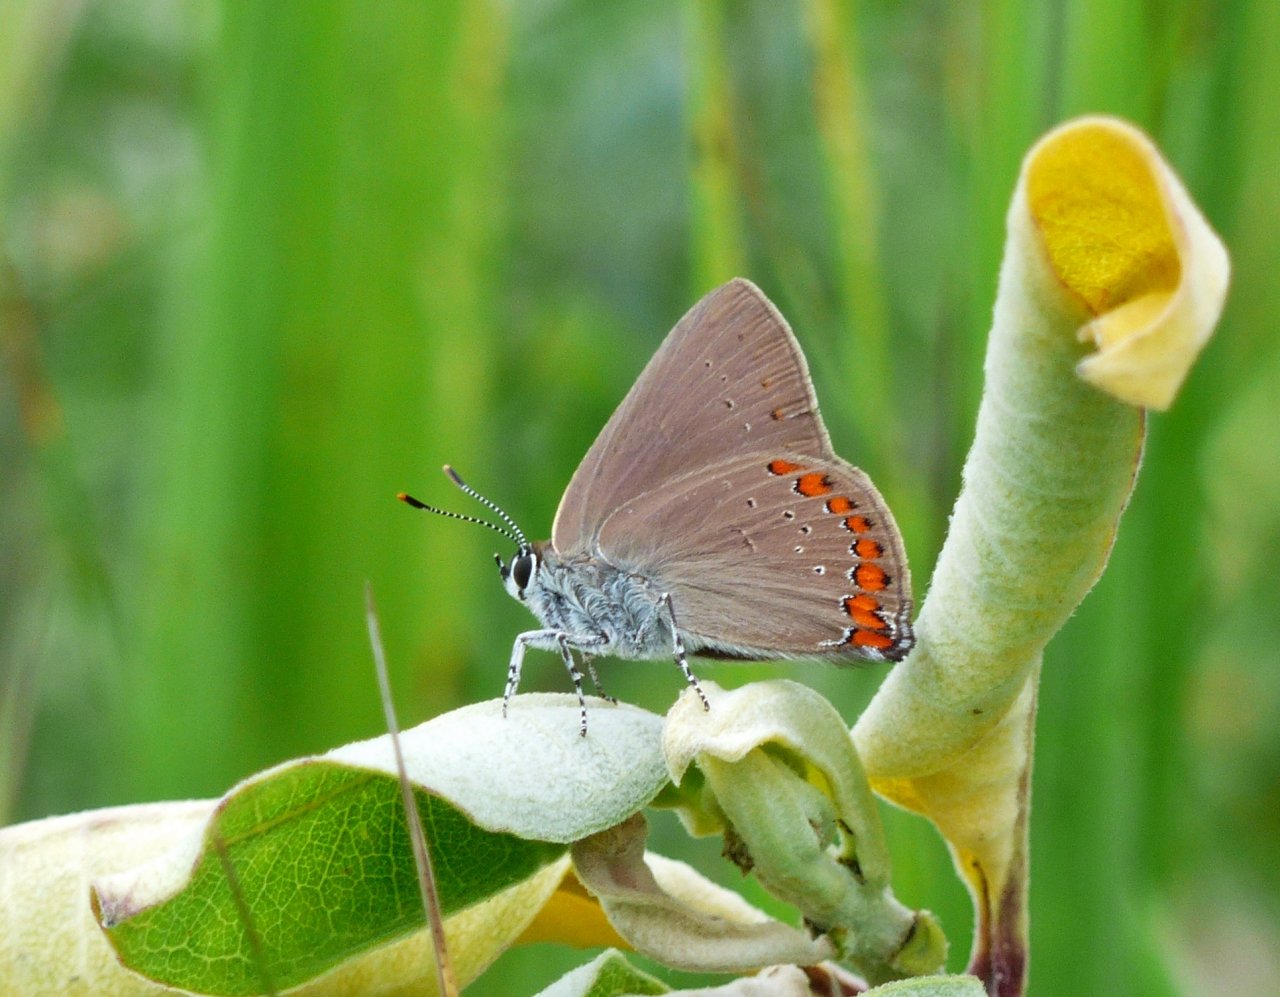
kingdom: Animalia
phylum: Arthropoda
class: Insecta
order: Lepidoptera
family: Lycaenidae
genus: Harkenclenus
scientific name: Harkenclenus titus
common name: Coral Hairstreak
